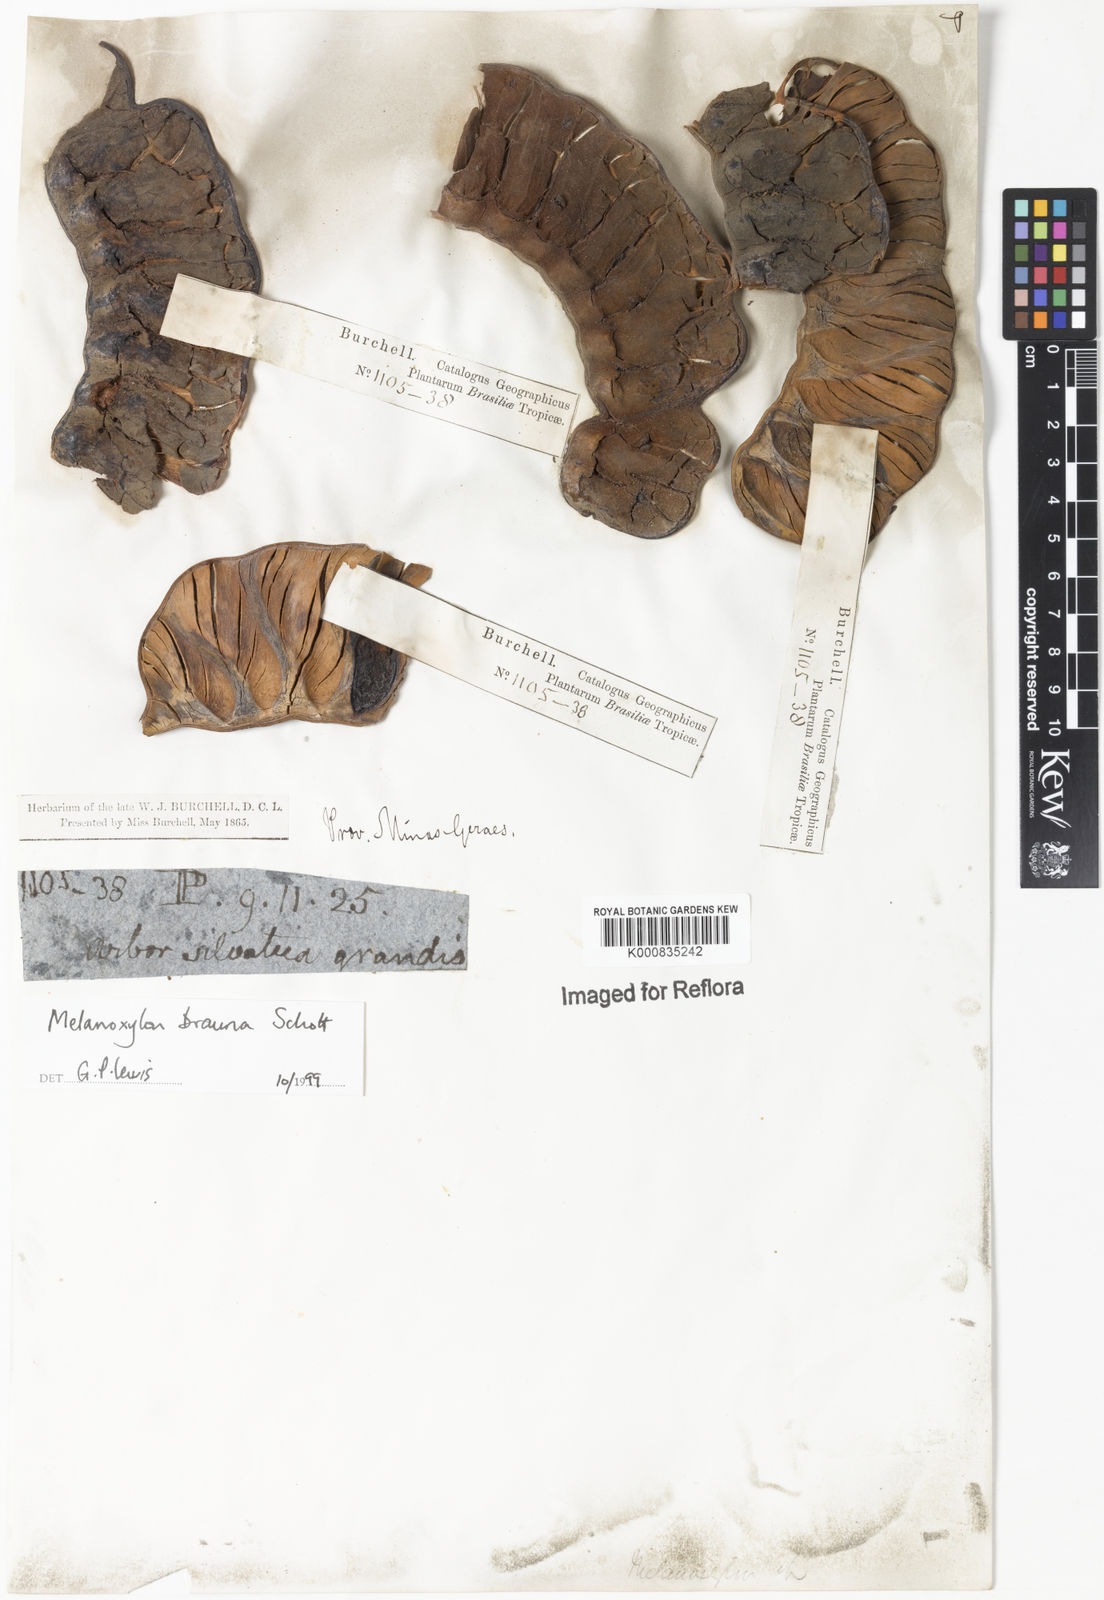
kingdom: Plantae
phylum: Tracheophyta
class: Magnoliopsida
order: Fabales
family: Fabaceae
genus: Melanoxylum
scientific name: Melanoxylum brauna
